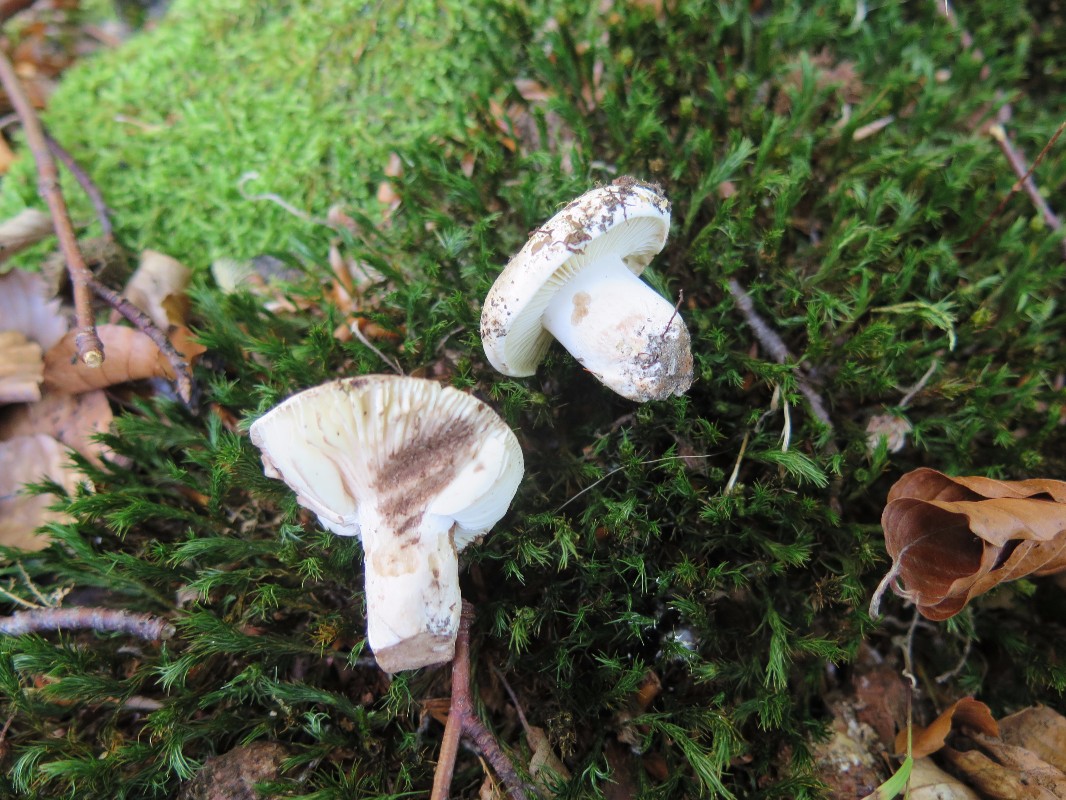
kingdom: Fungi
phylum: Basidiomycota
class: Agaricomycetes
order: Russulales
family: Russulaceae
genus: Russula
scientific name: Russula densifolia
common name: tætbladet skørhat
